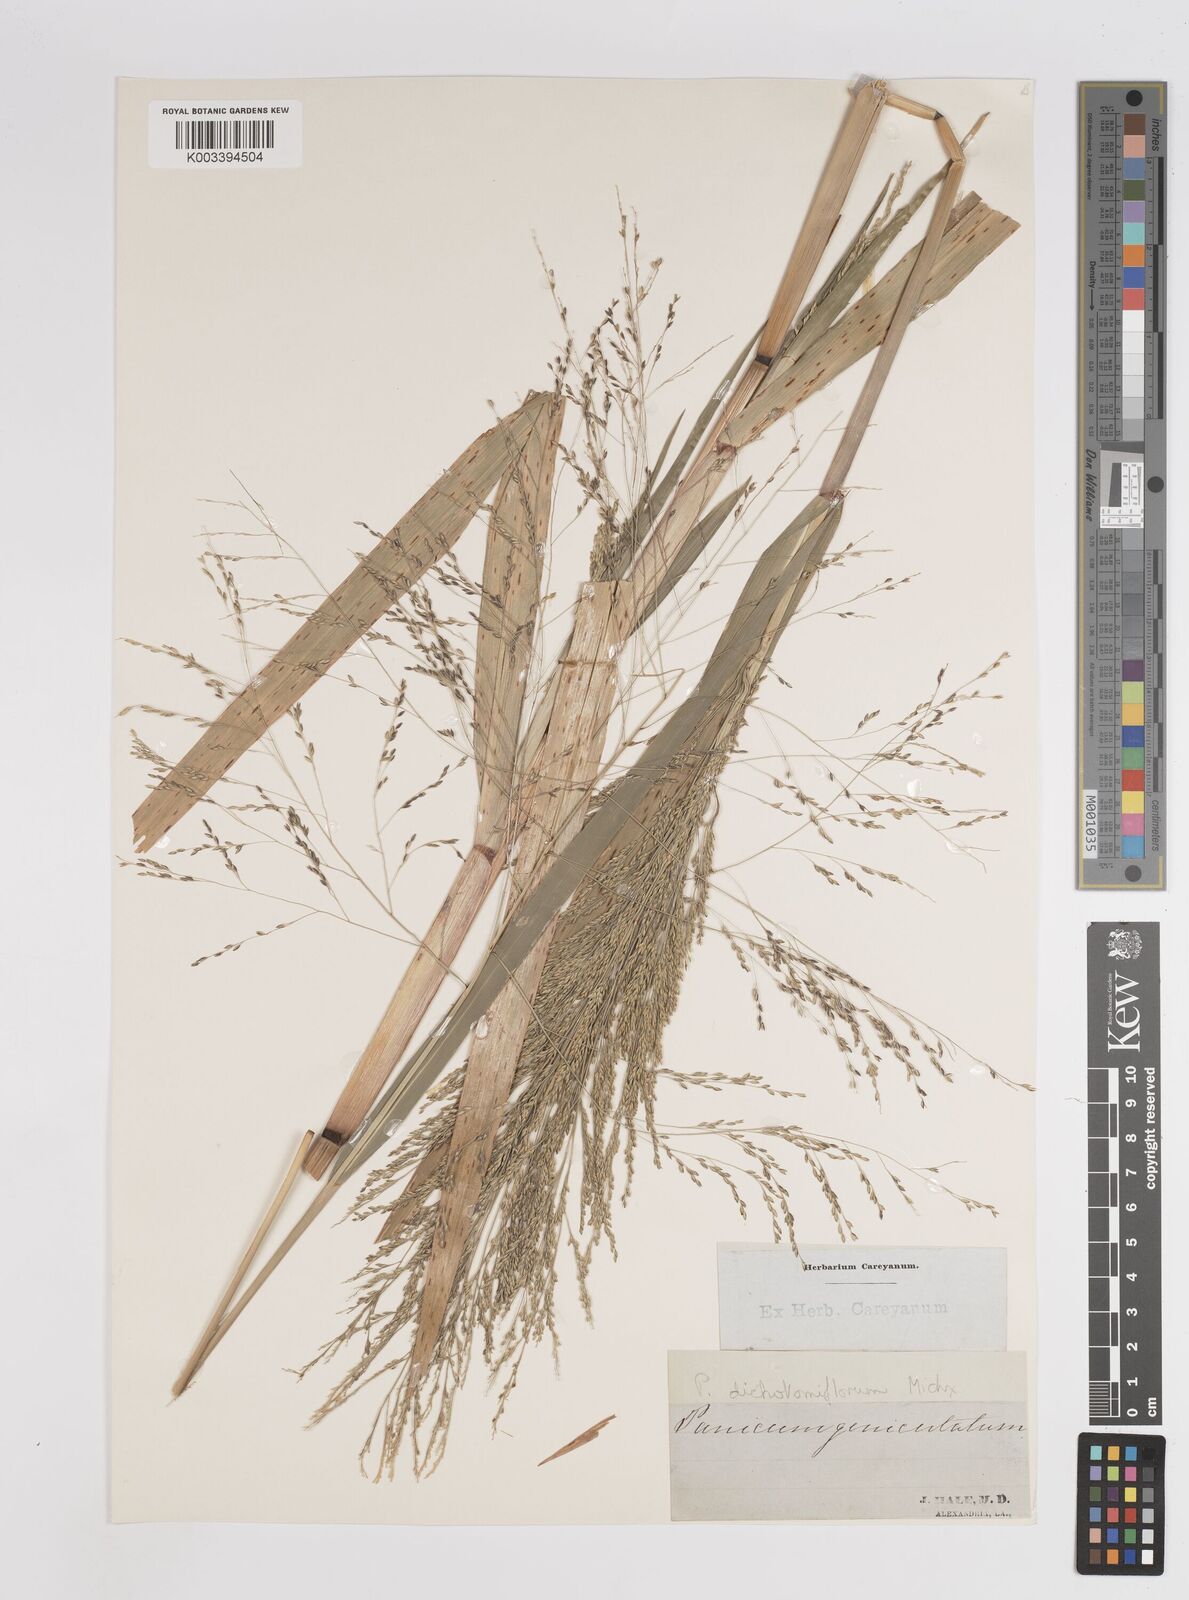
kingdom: Plantae
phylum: Tracheophyta
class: Liliopsida
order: Poales
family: Poaceae
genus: Panicum
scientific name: Panicum dichotomiflorum
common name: Autumn millet
